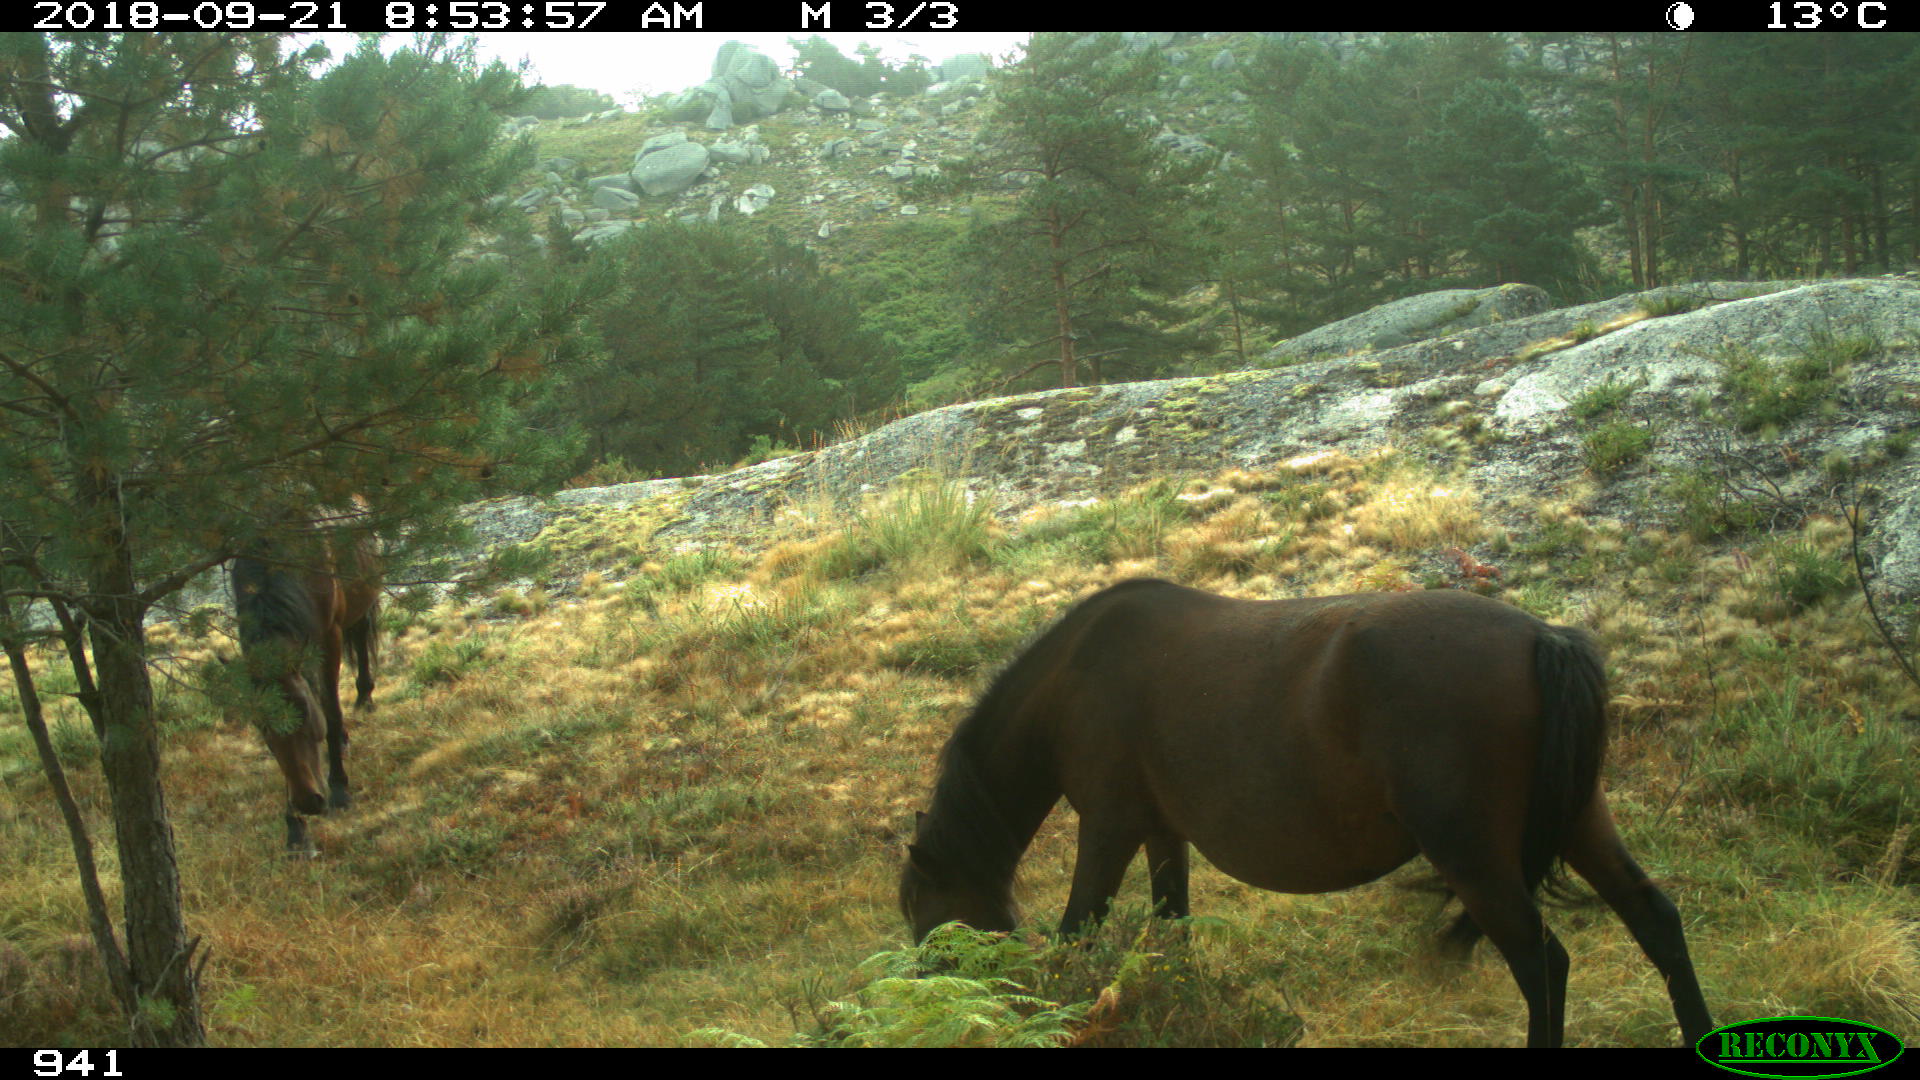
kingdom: Animalia
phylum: Chordata
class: Mammalia
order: Perissodactyla
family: Equidae
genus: Equus
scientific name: Equus caballus
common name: Horse
